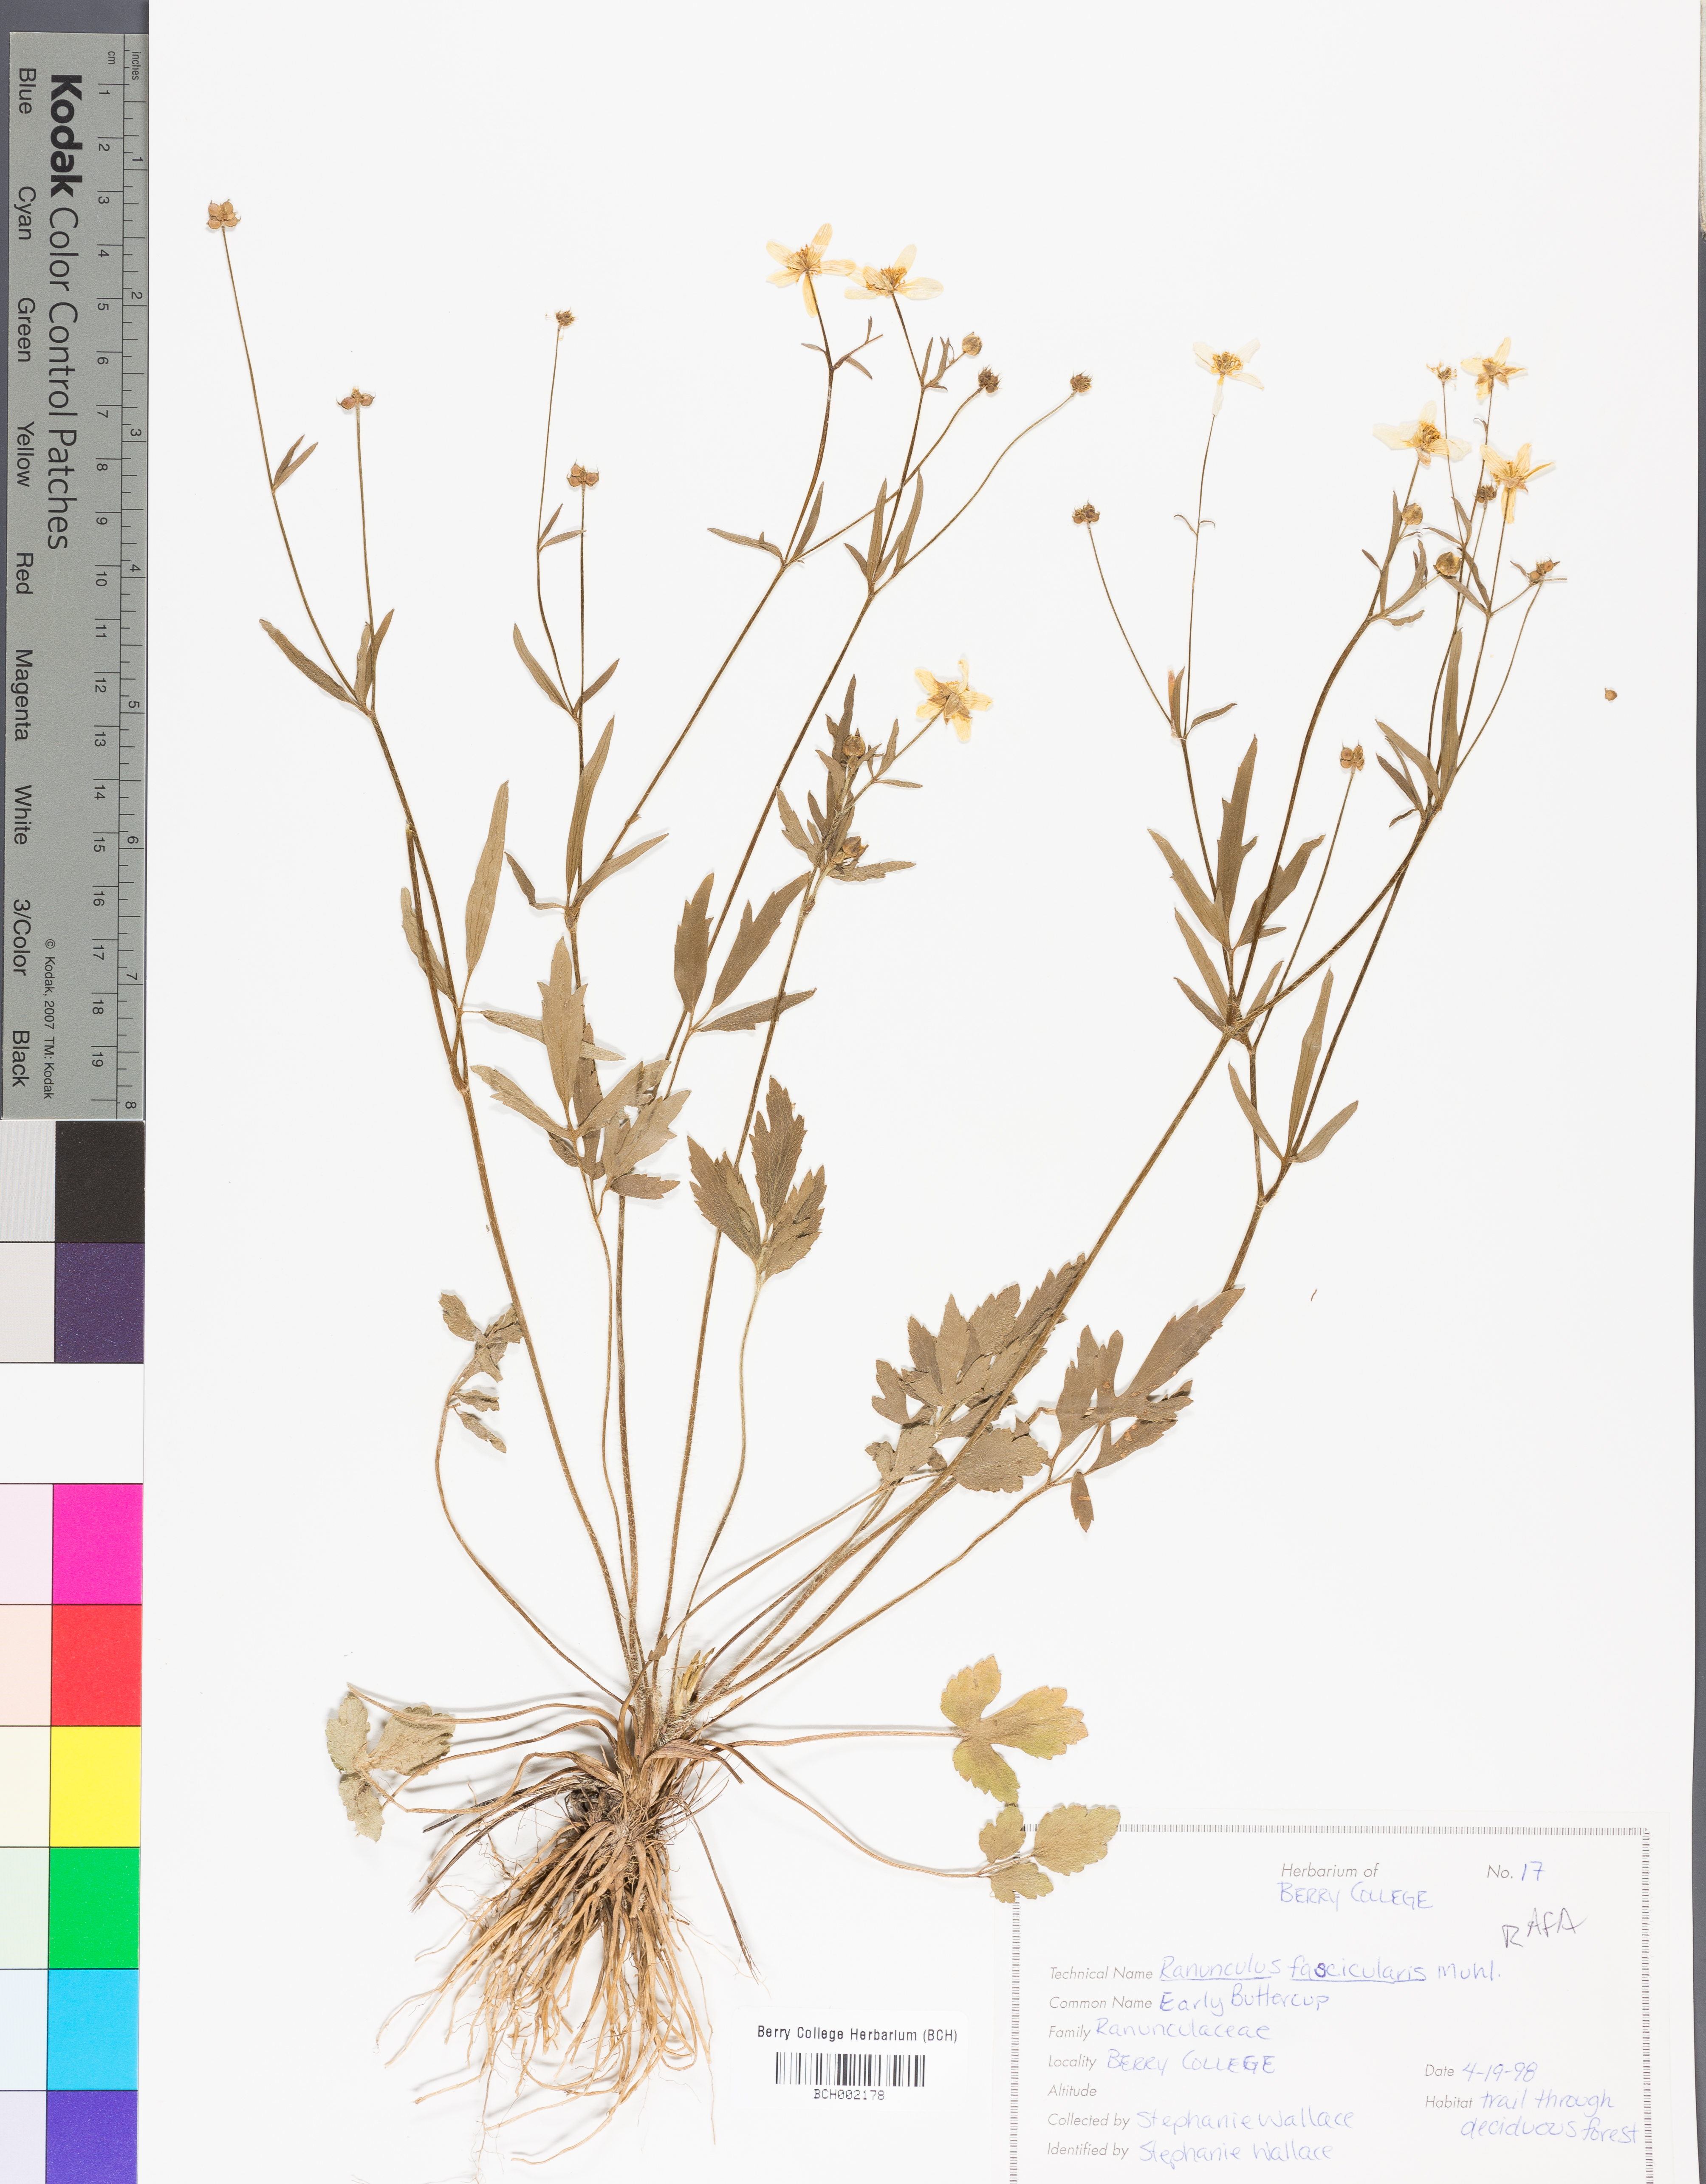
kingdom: Plantae
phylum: Tracheophyta
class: Magnoliopsida
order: Ranunculales
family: Ranunculaceae
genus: Ranunculus
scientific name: Ranunculus fascicularis
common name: Early buttercup
